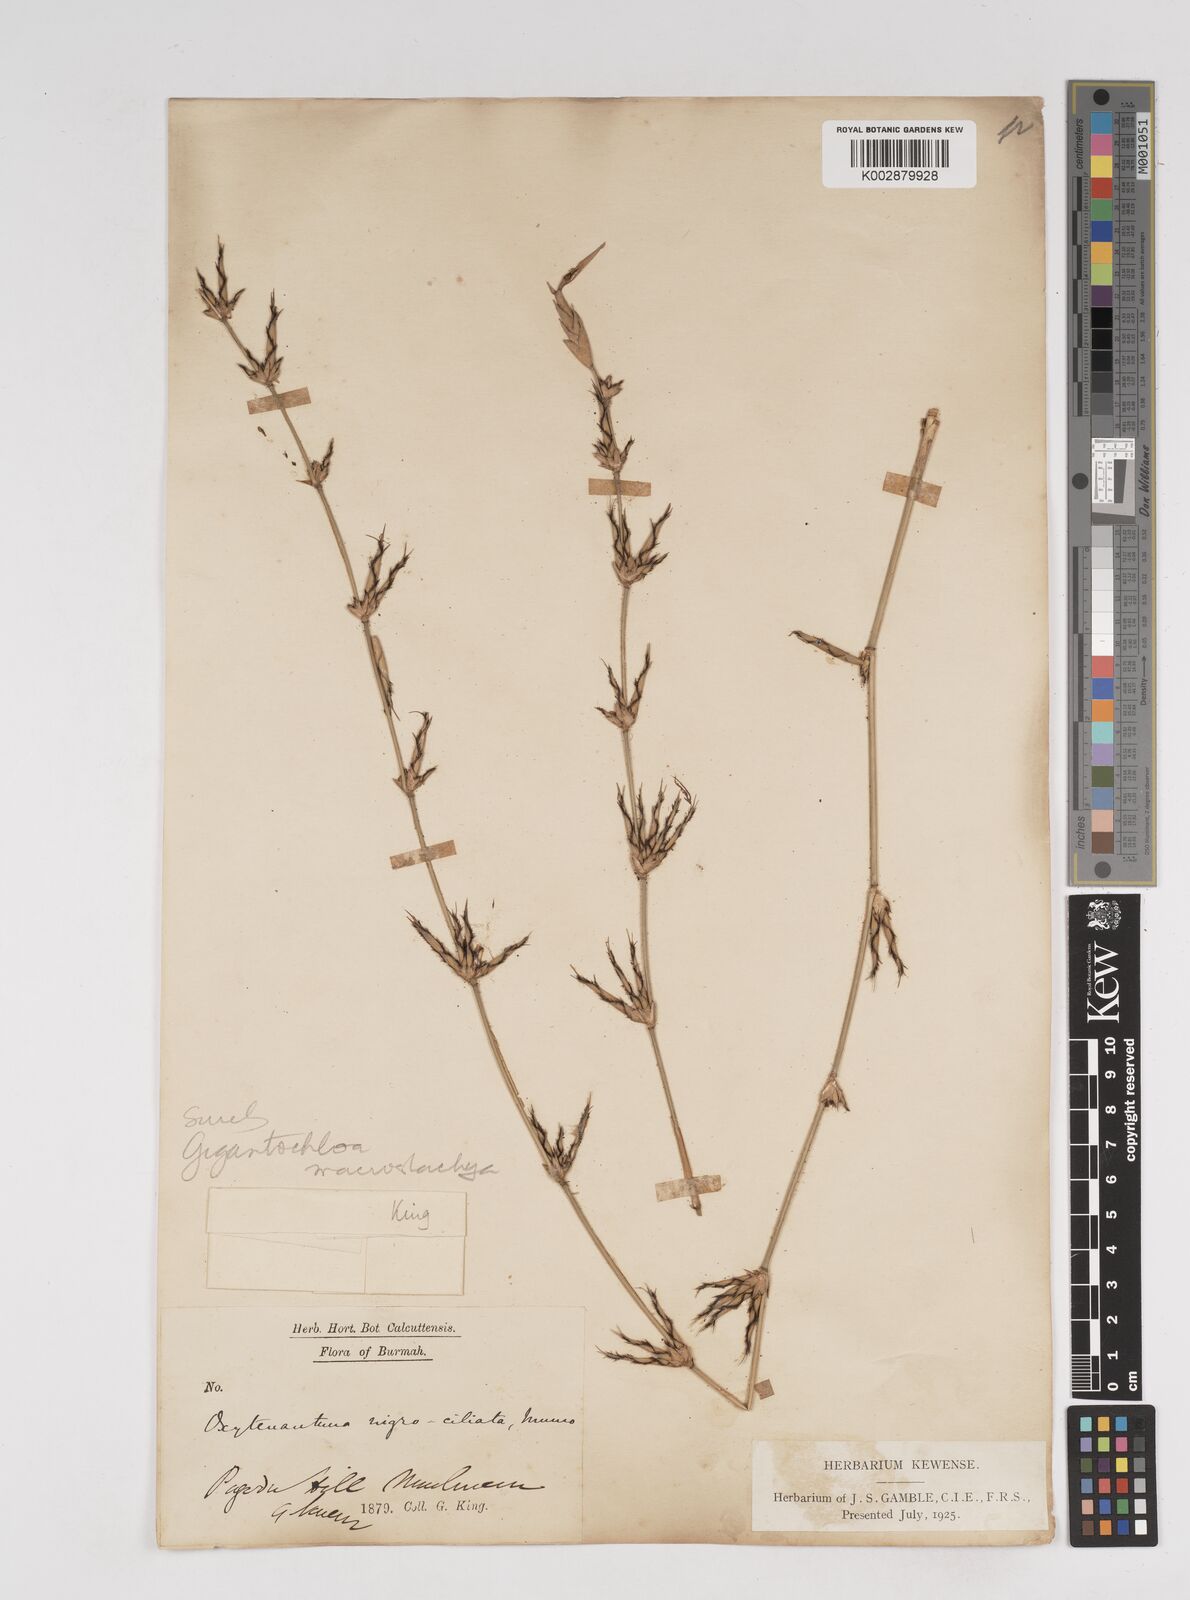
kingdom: Plantae
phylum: Tracheophyta
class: Liliopsida
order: Poales
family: Poaceae
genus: Gigantochloa
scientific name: Gigantochloa nigrociliata
